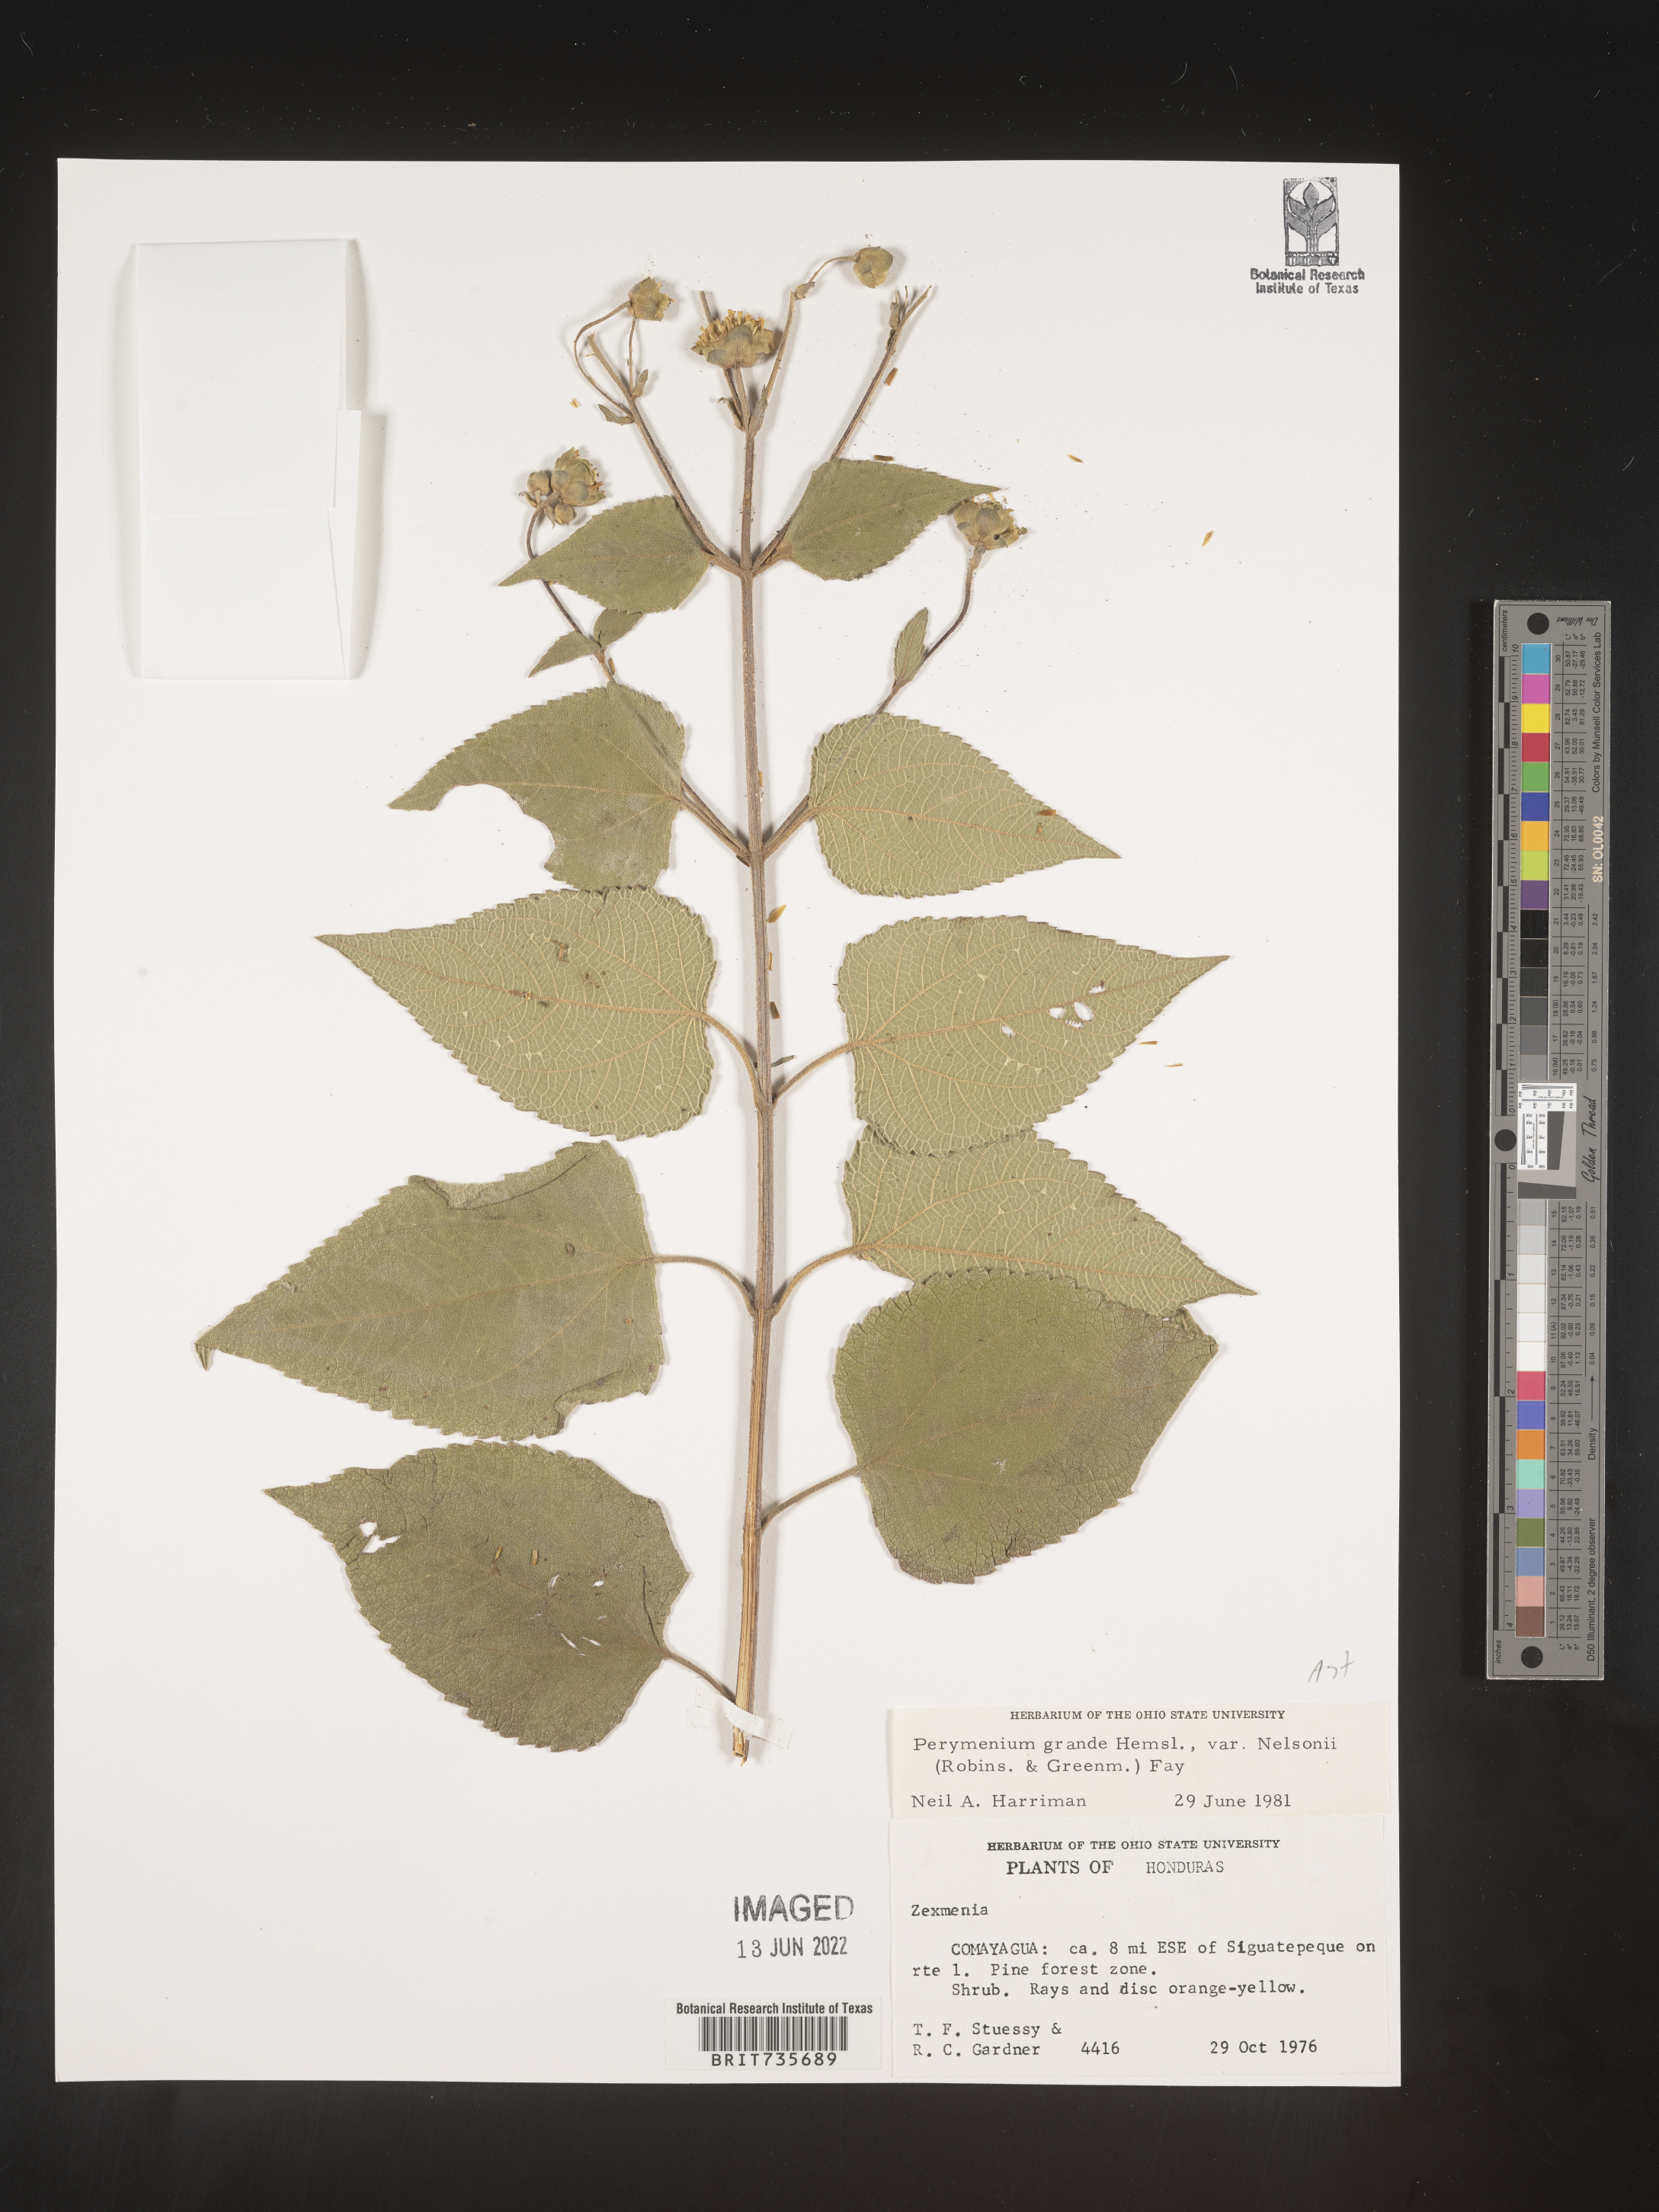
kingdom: Plantae
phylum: Tracheophyta
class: Magnoliopsida
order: Asterales
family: Asteraceae
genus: Perymenium
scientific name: Perymenium
